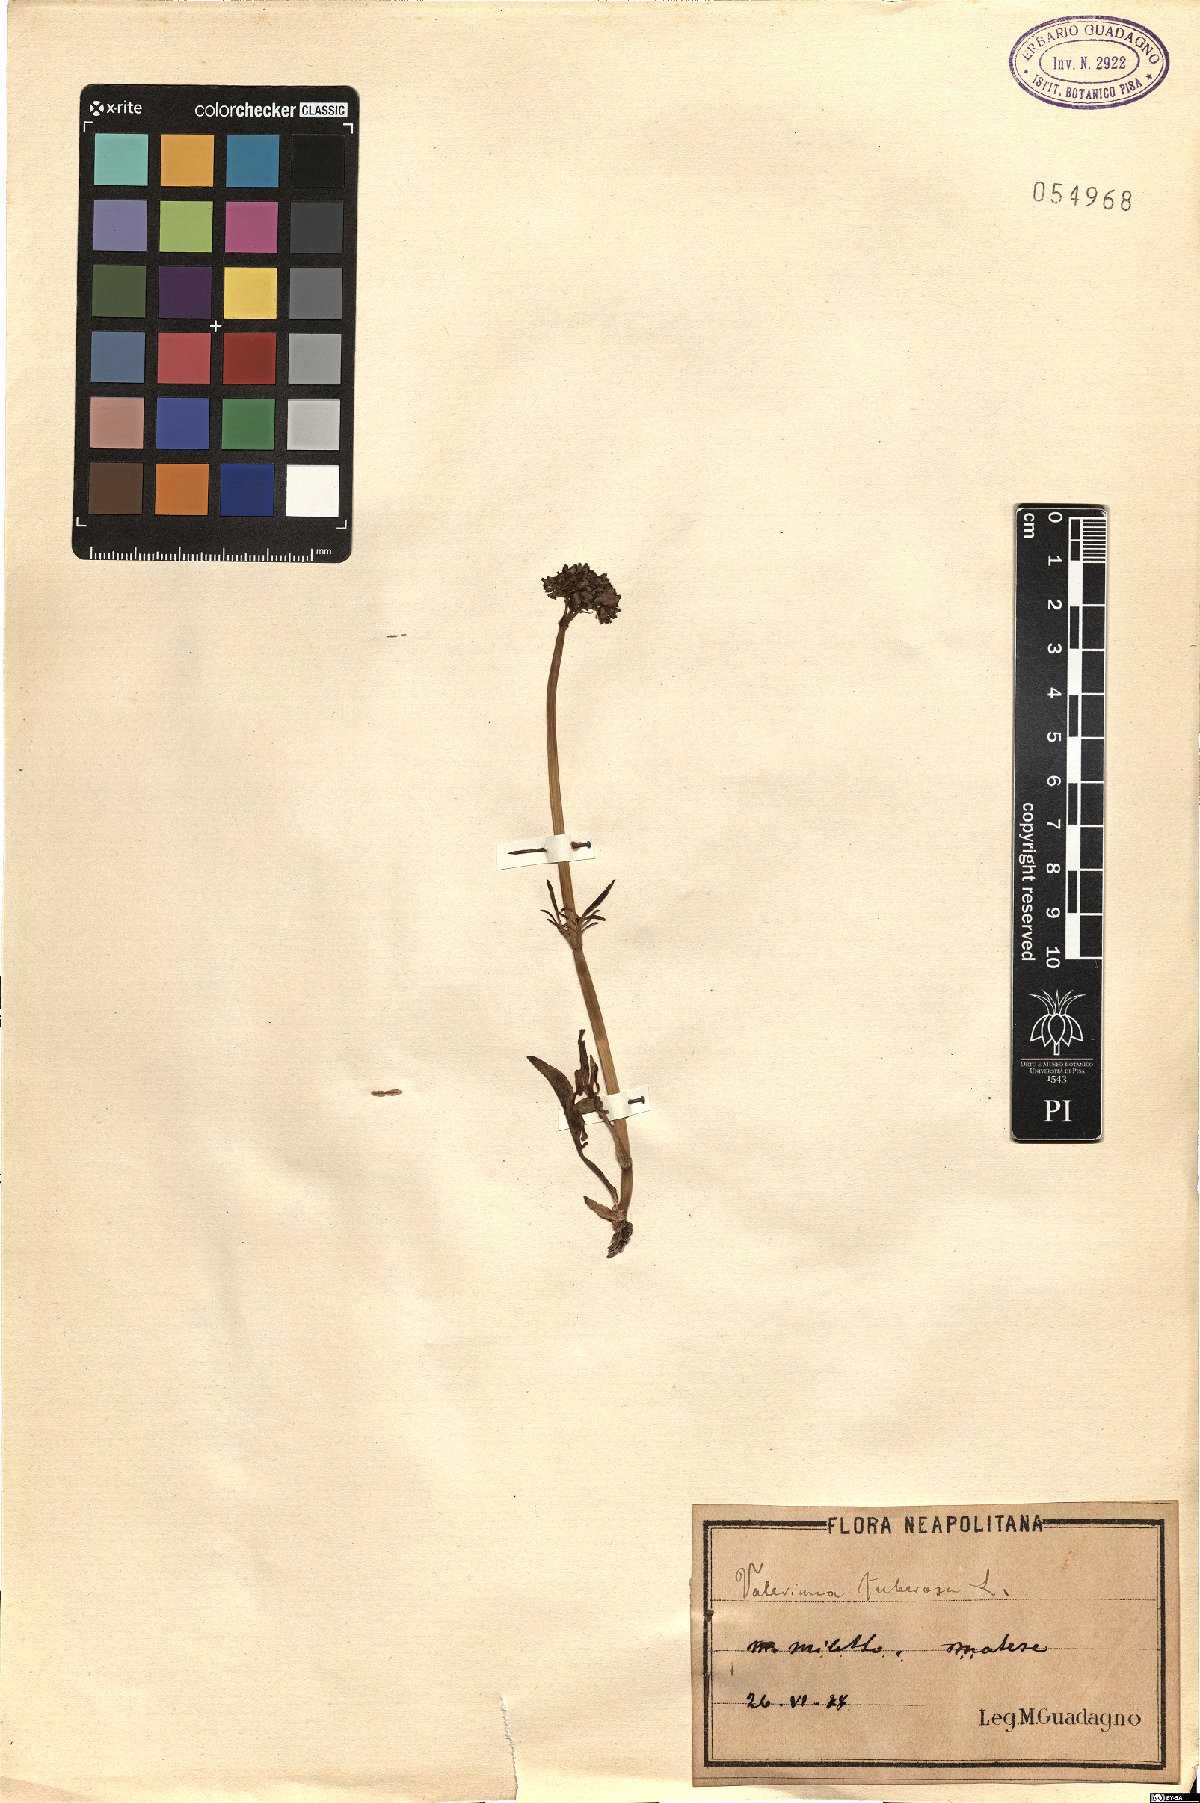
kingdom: Plantae
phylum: Tracheophyta
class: Magnoliopsida
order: Dipsacales
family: Caprifoliaceae
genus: Valeriana
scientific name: Valeriana tuberosa
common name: Tuberous valerian
